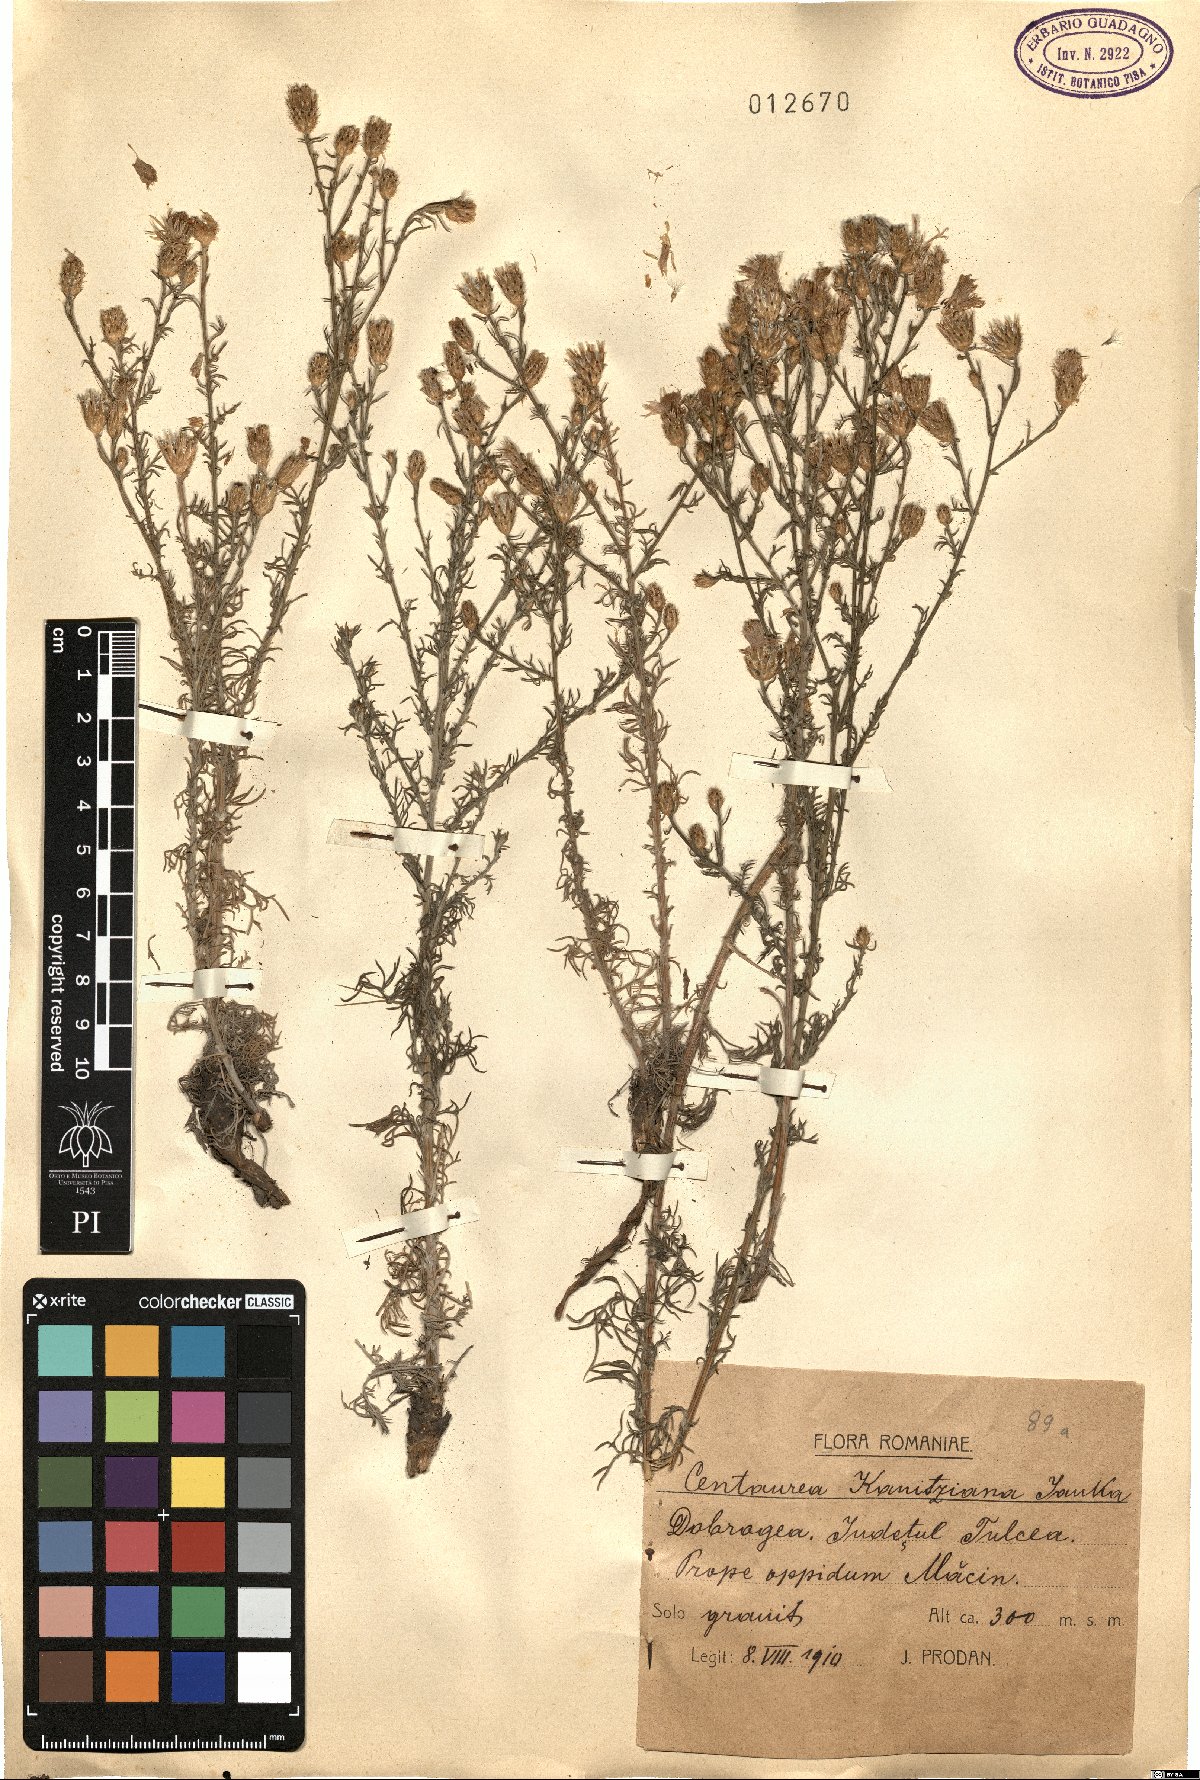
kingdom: Plantae
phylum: Tracheophyta
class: Magnoliopsida
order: Asterales
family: Asteraceae
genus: Centaurea
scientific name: Centaurea kanitziana
